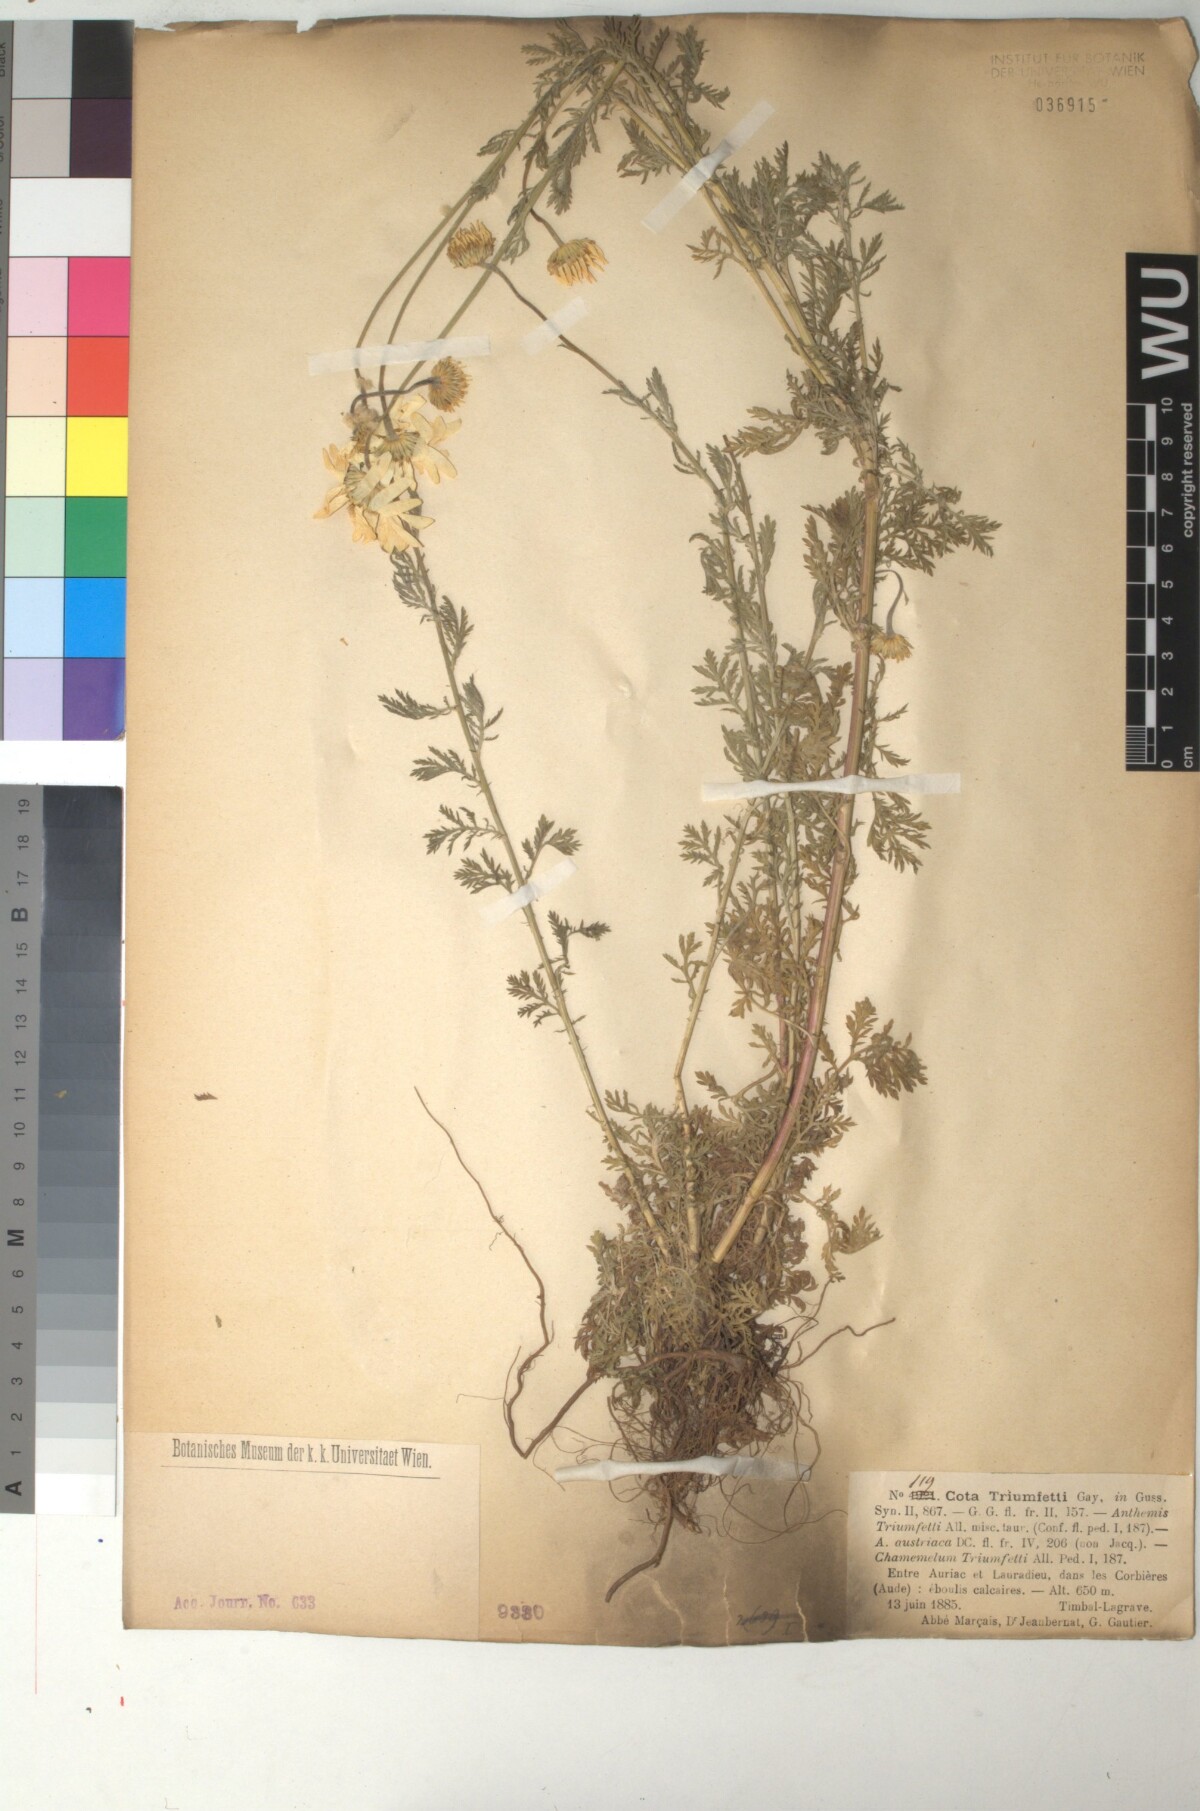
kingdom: Plantae
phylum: Tracheophyta
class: Magnoliopsida
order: Asterales
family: Asteraceae
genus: Cota
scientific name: Cota triumfetti
